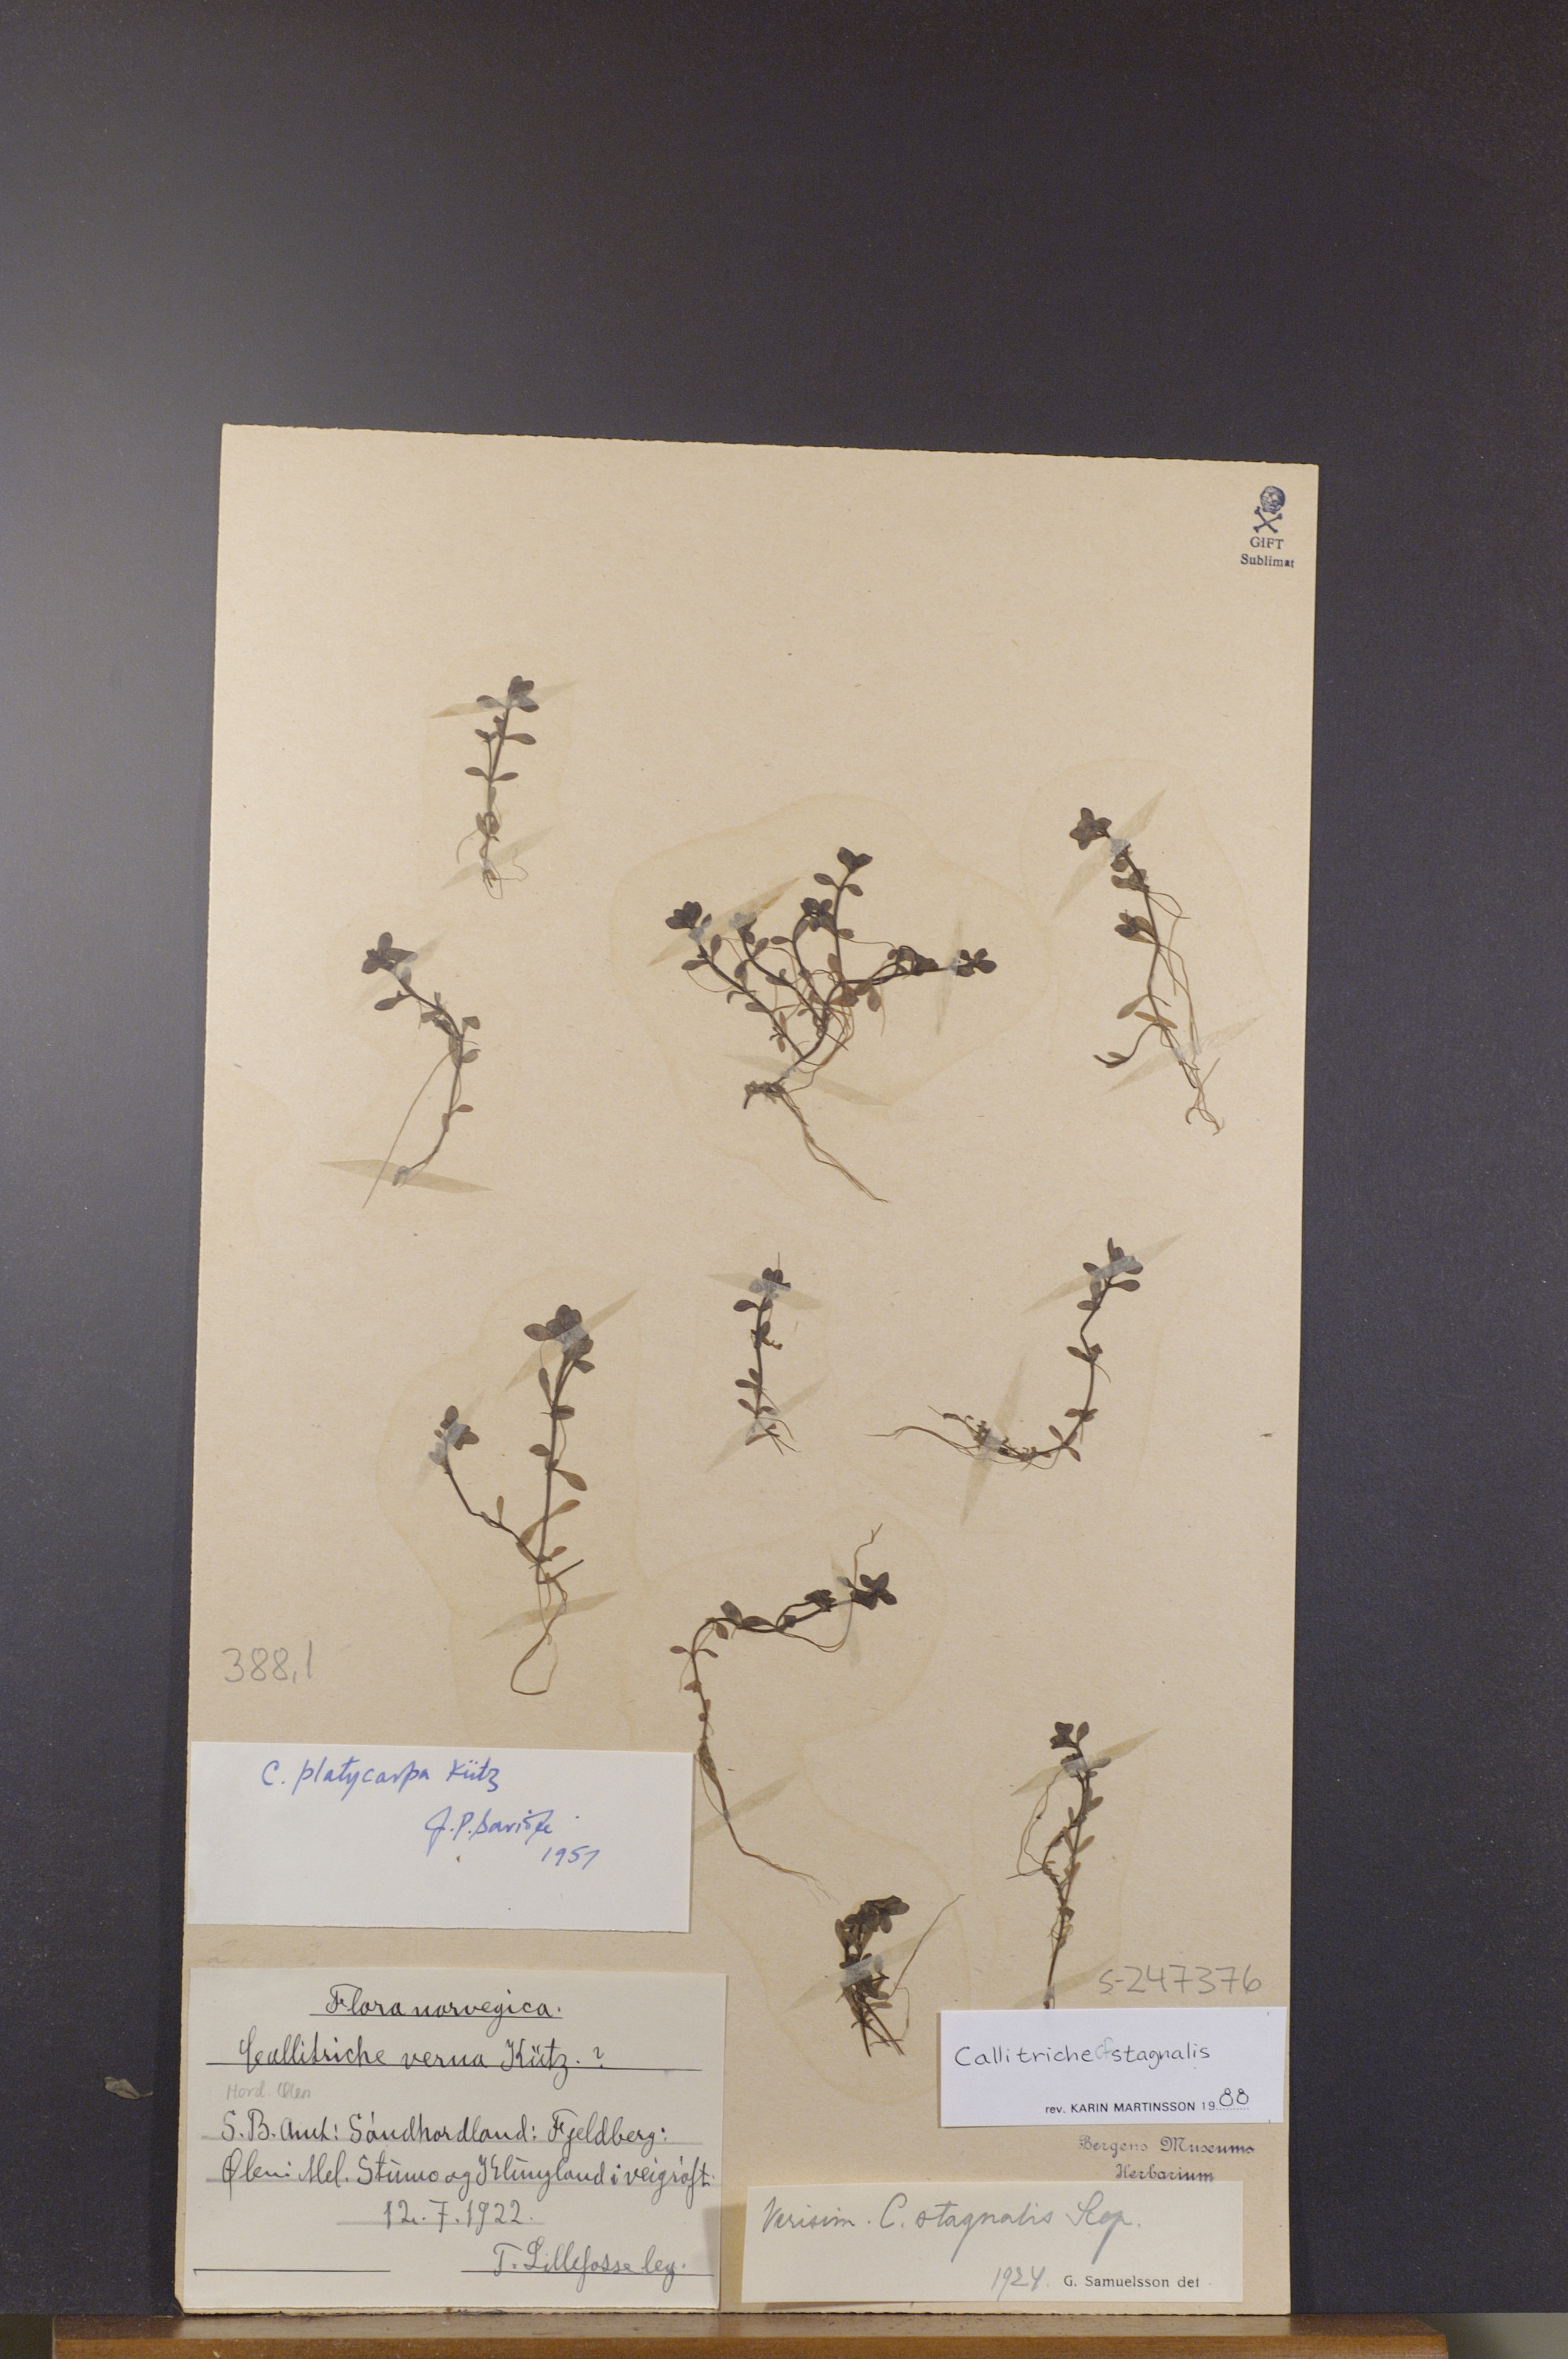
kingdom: Plantae
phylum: Tracheophyta
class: Magnoliopsida
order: Lamiales
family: Plantaginaceae
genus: Callitriche
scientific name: Callitriche stagnalis
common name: Common water-starwort
